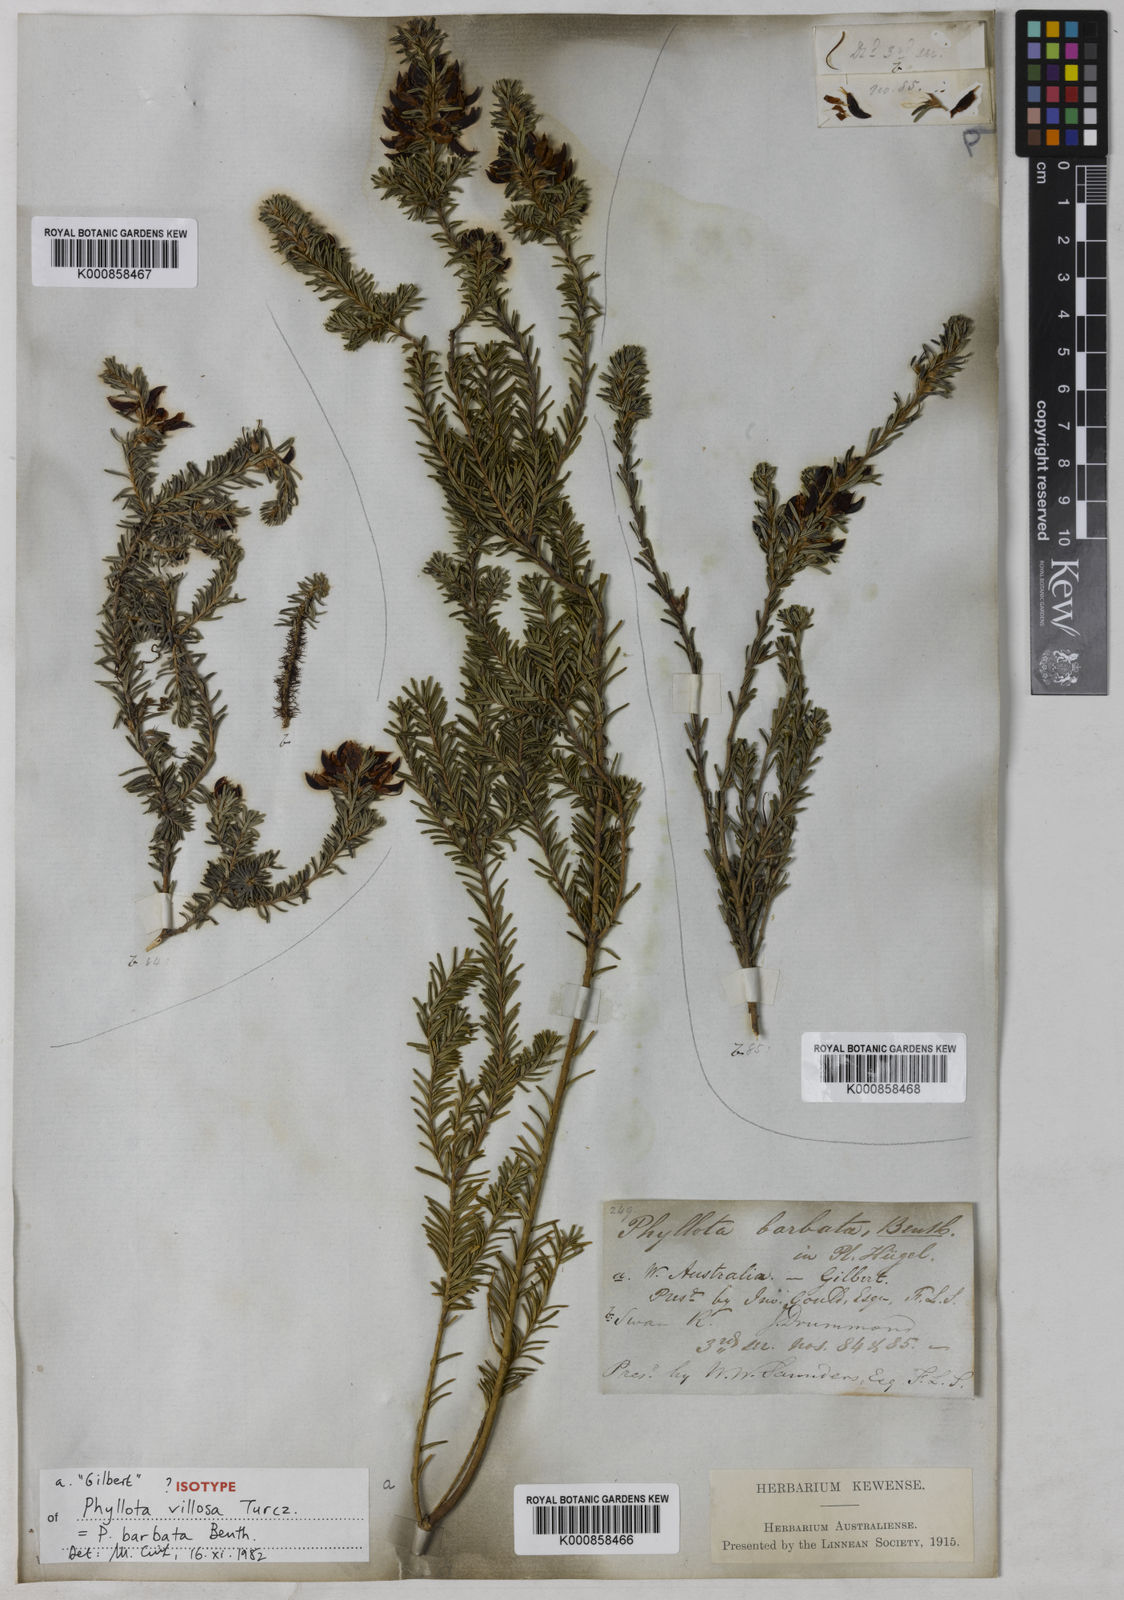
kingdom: Plantae
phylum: Tracheophyta
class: Magnoliopsida
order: Fabales
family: Fabaceae
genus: Phyllota
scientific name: Phyllota barbata
